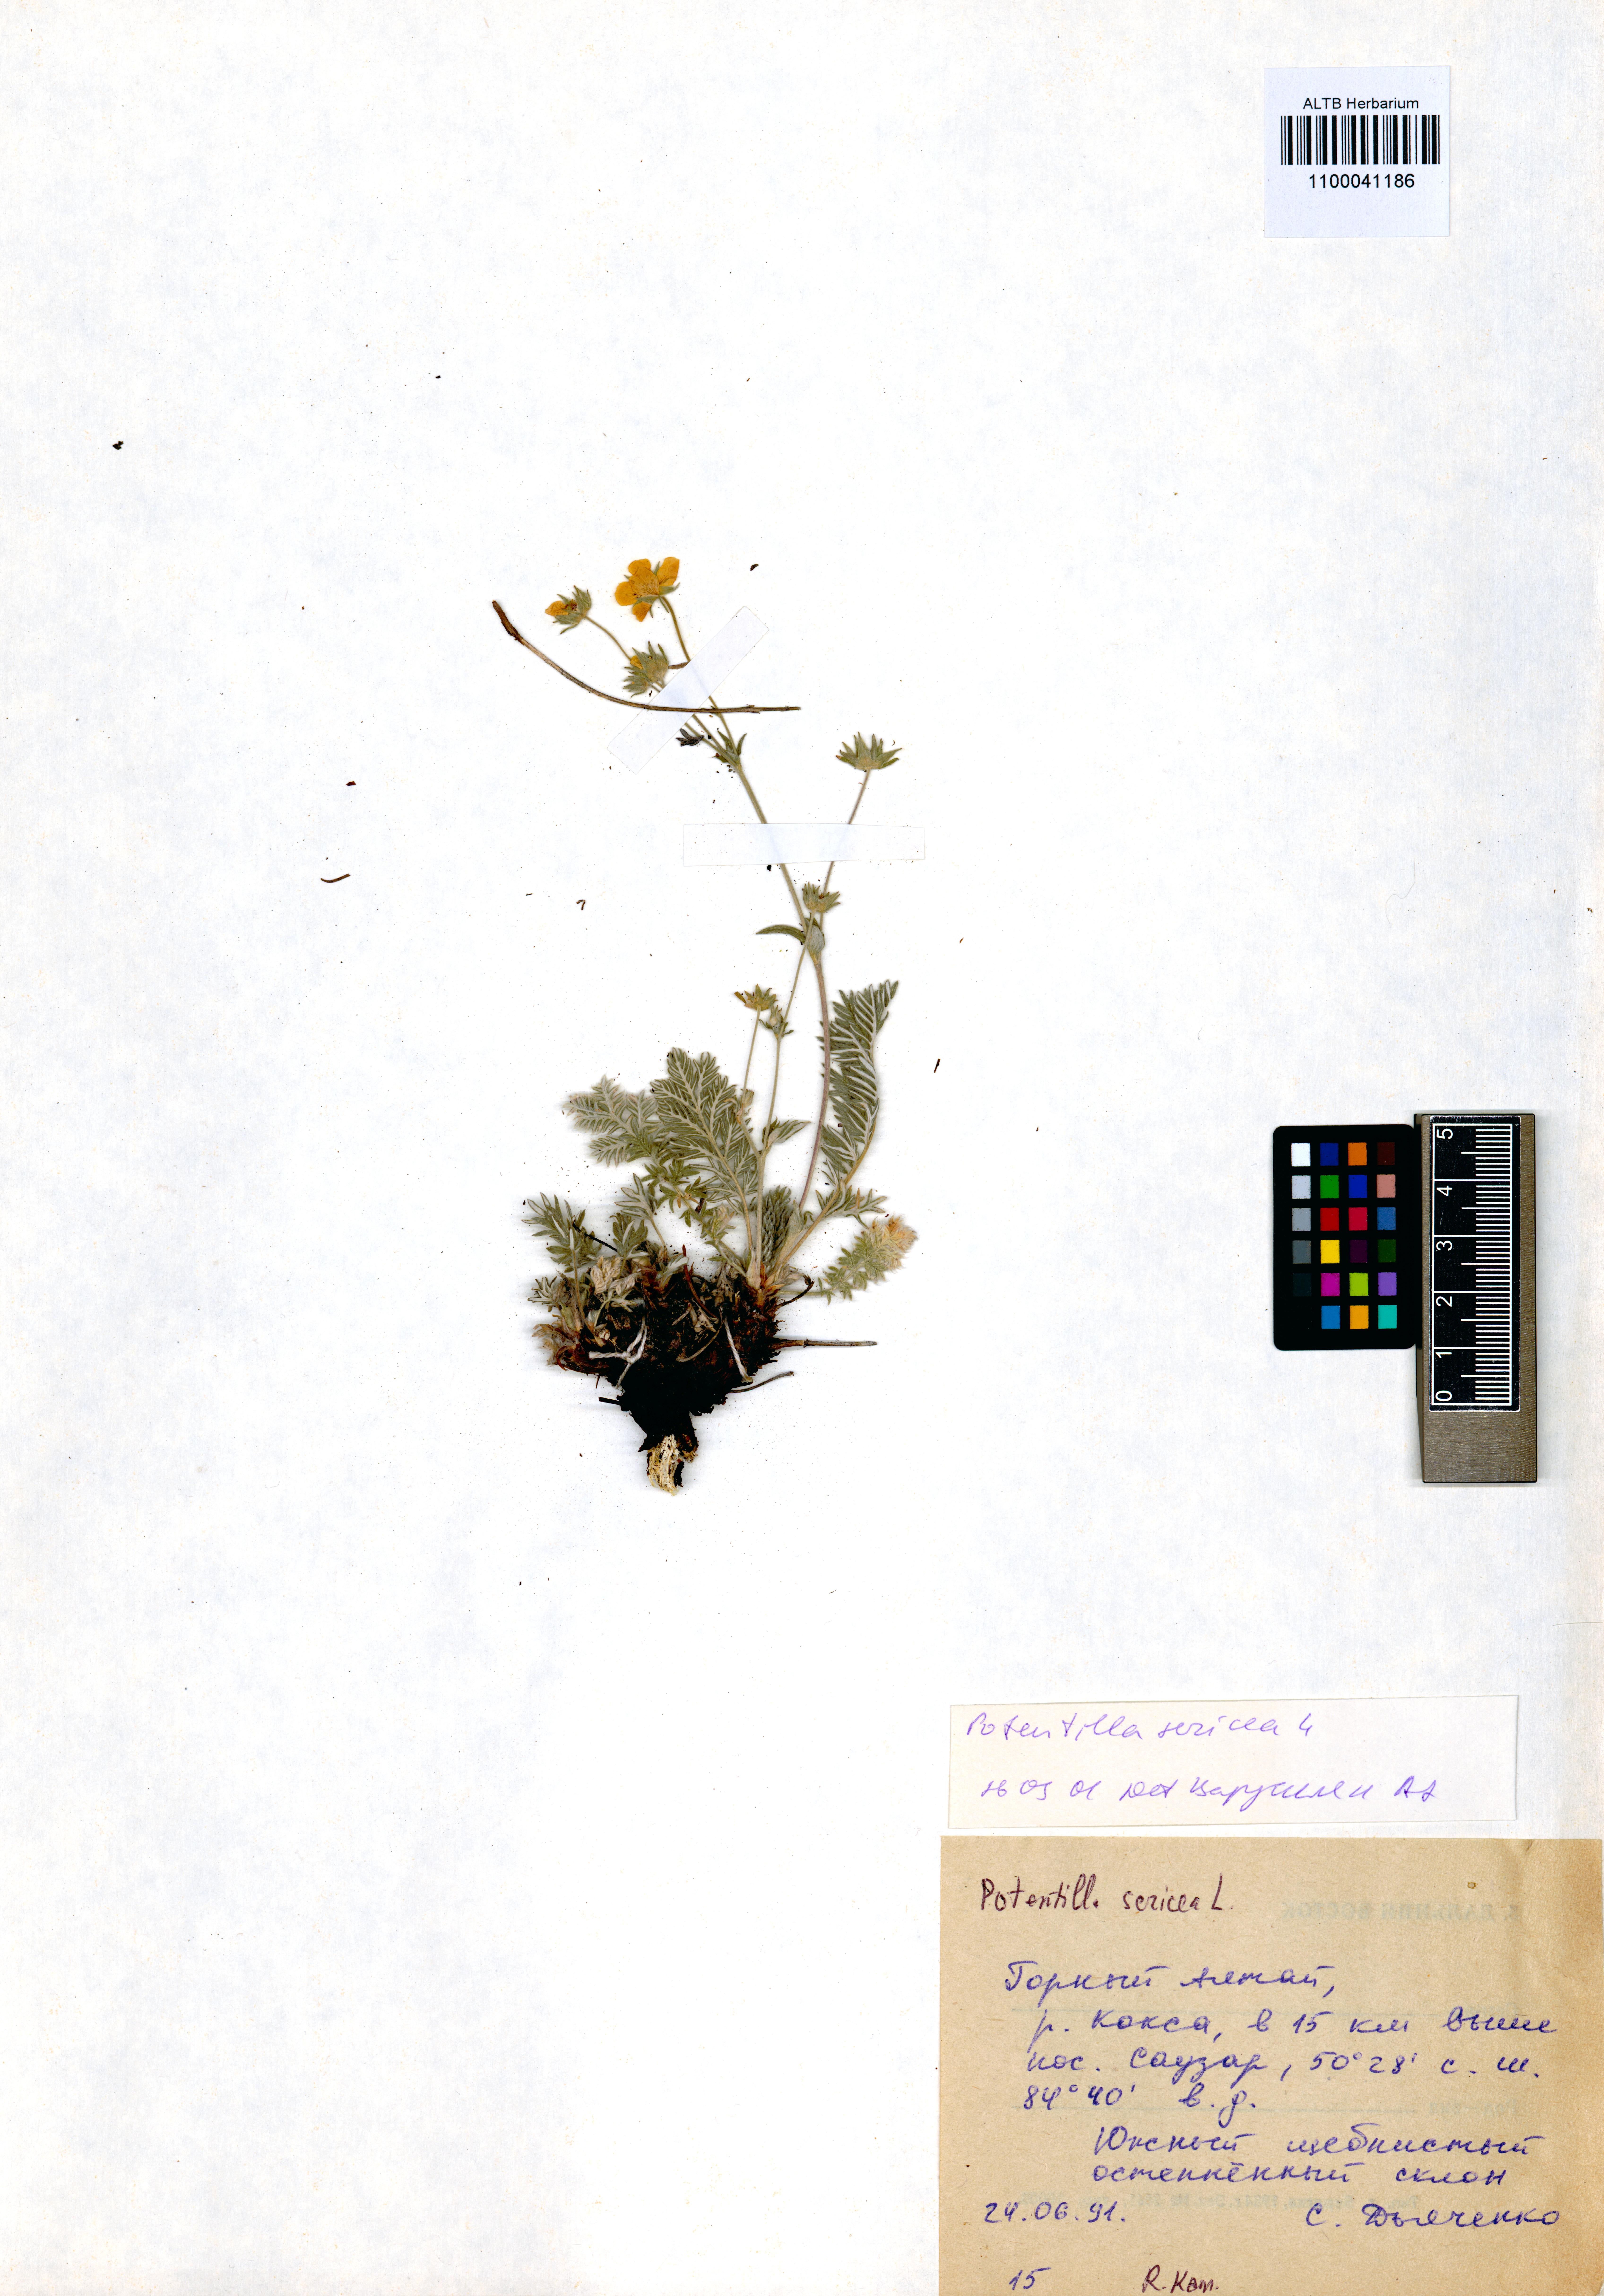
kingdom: Plantae
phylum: Tracheophyta
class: Magnoliopsida
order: Rosales
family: Rosaceae
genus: Potentilla
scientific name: Potentilla sericea
